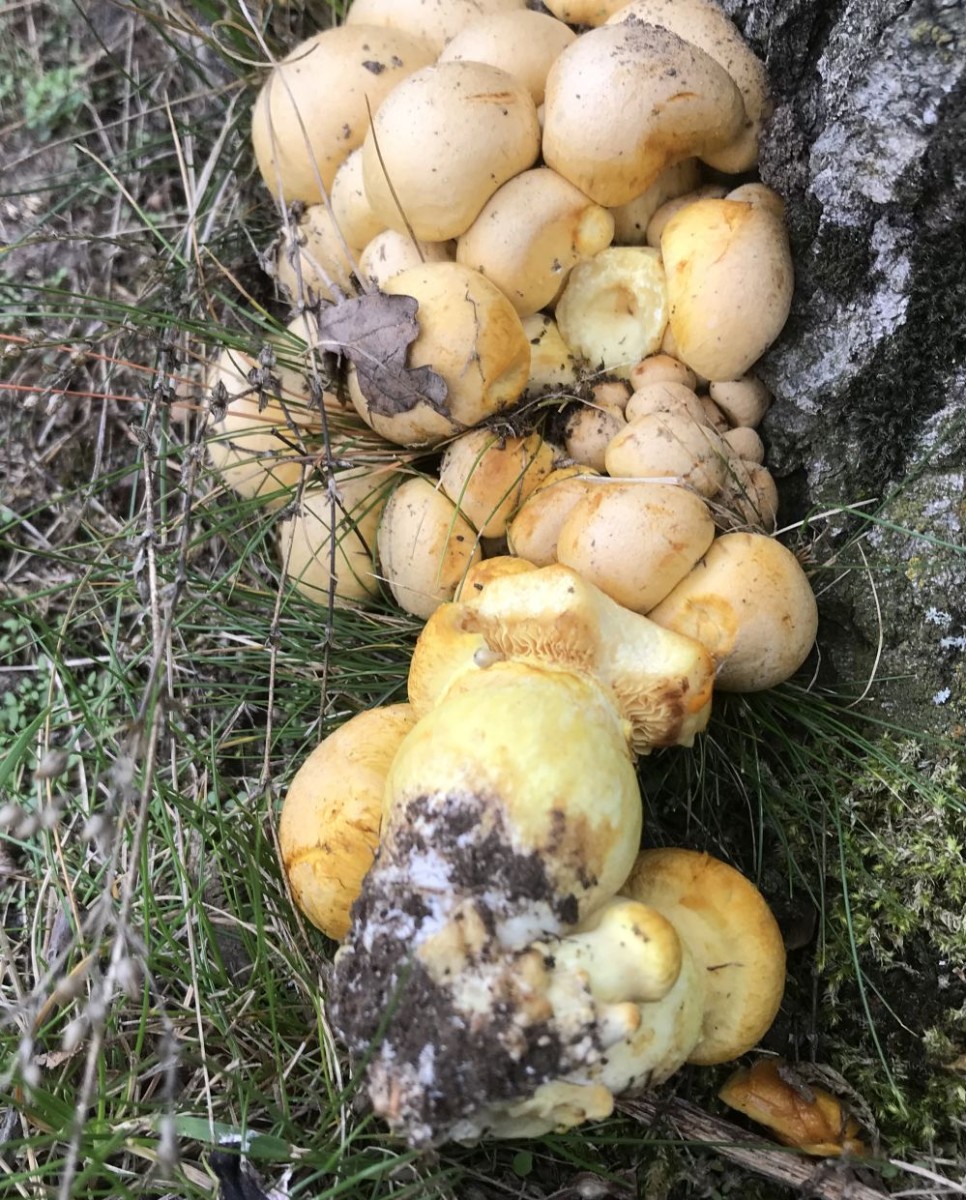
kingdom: Fungi
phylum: Basidiomycota
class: Agaricomycetes
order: Agaricales
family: Hymenogastraceae
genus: Gymnopilus
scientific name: Gymnopilus spectabilis
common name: fibret flammehat
